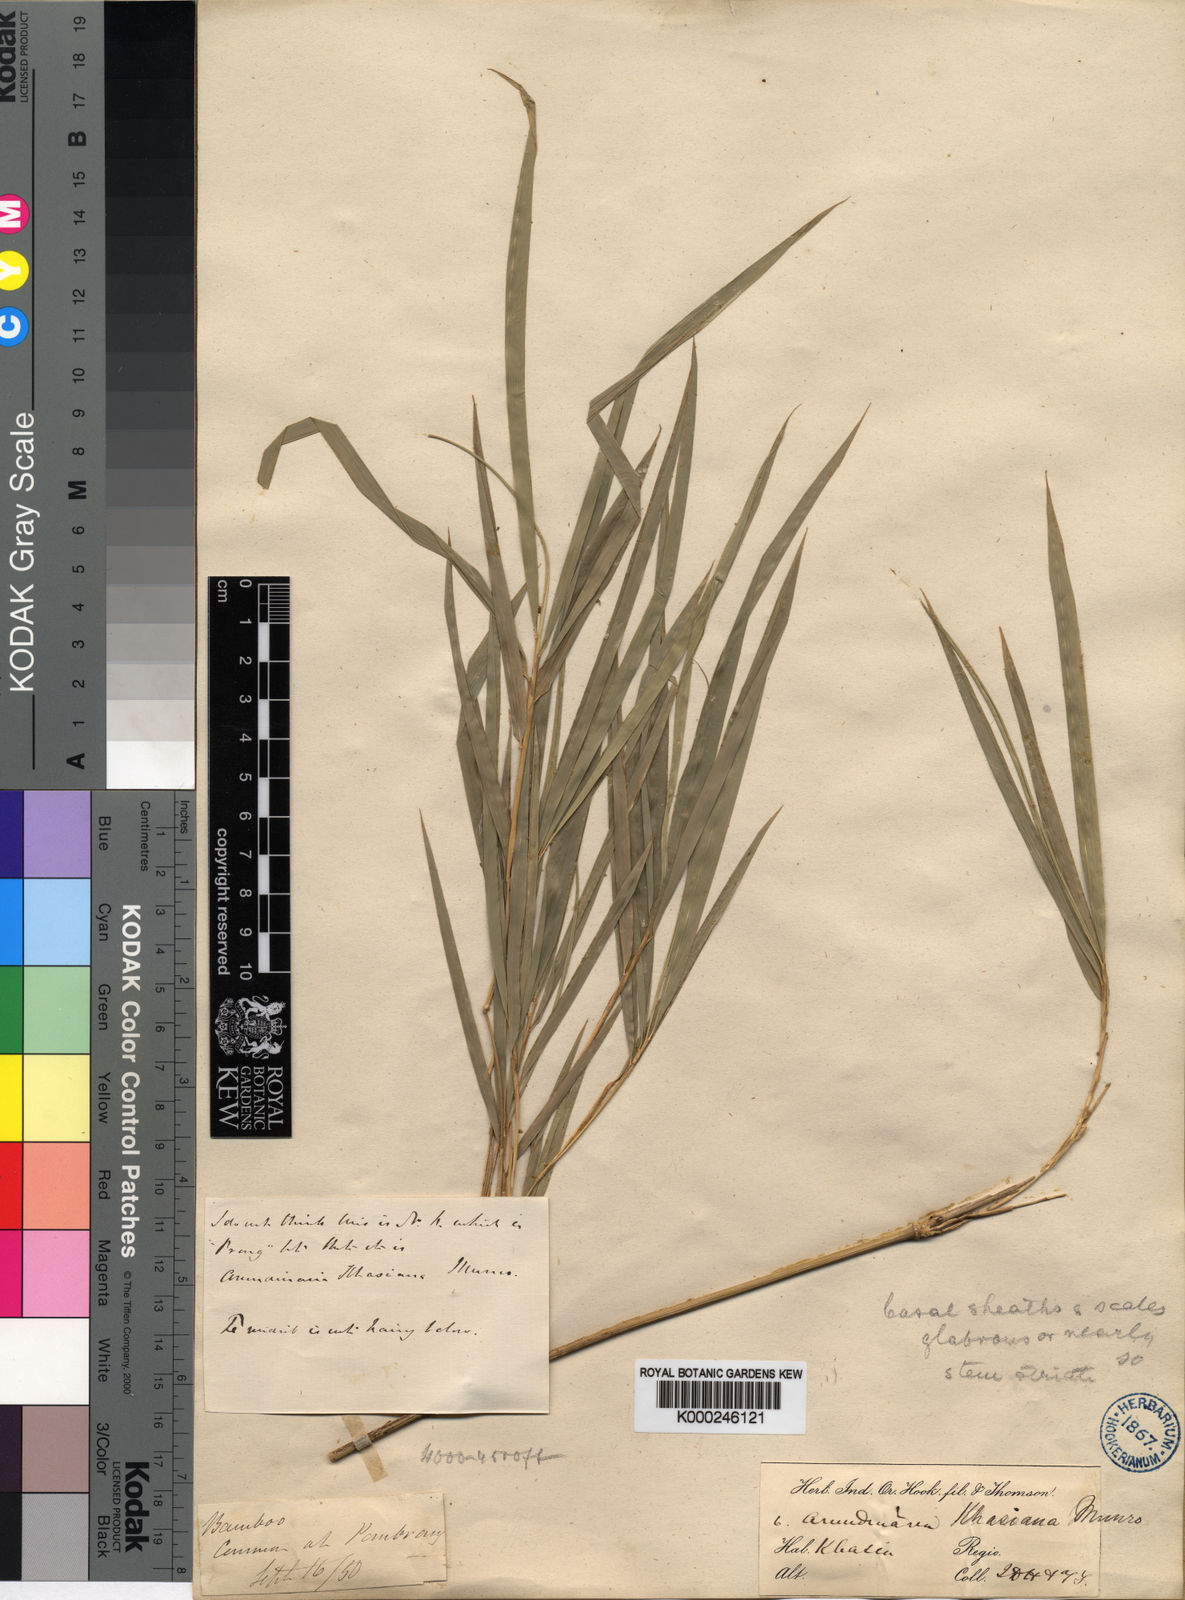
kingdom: Plantae
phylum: Tracheophyta
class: Liliopsida
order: Poales
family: Poaceae
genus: Drepanostachyum
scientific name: Drepanostachyum khasianum
